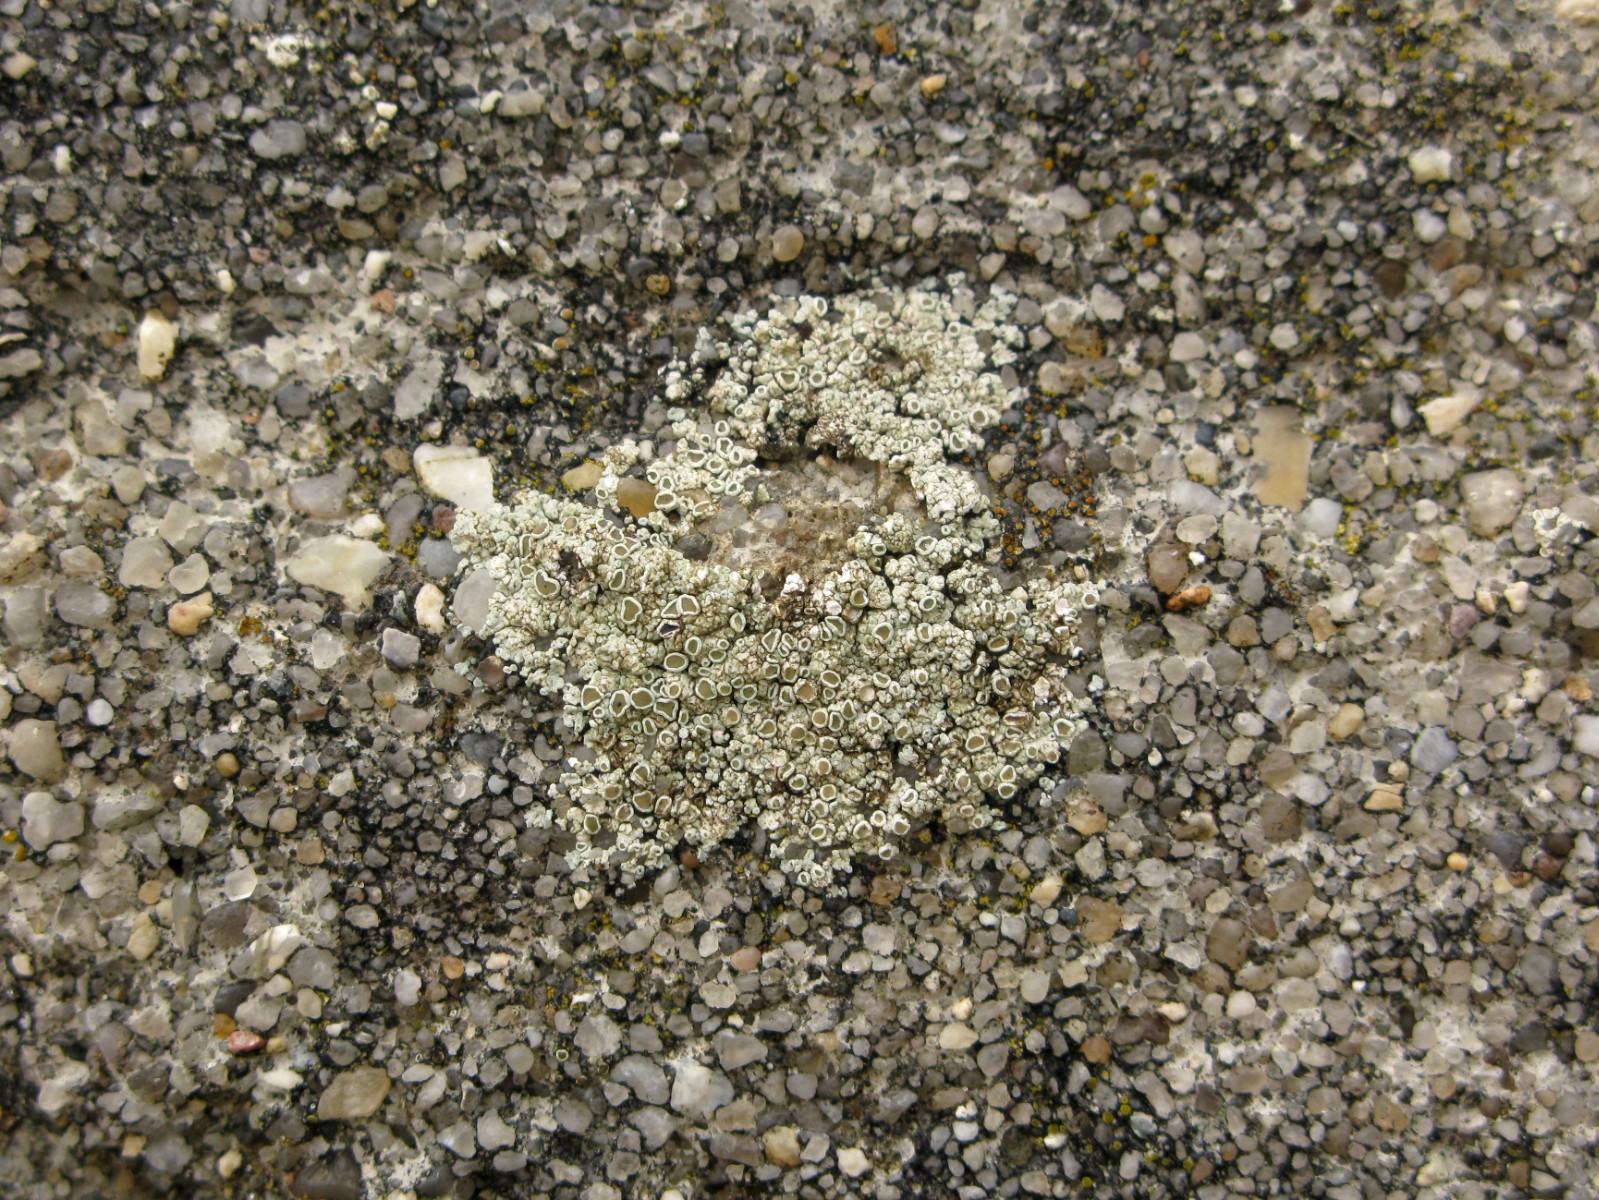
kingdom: Fungi
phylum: Ascomycota
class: Lecanoromycetes
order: Lecanorales
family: Lecanoraceae
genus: Polyozosia
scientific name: Polyozosia albescens
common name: cement-kantskivelav
